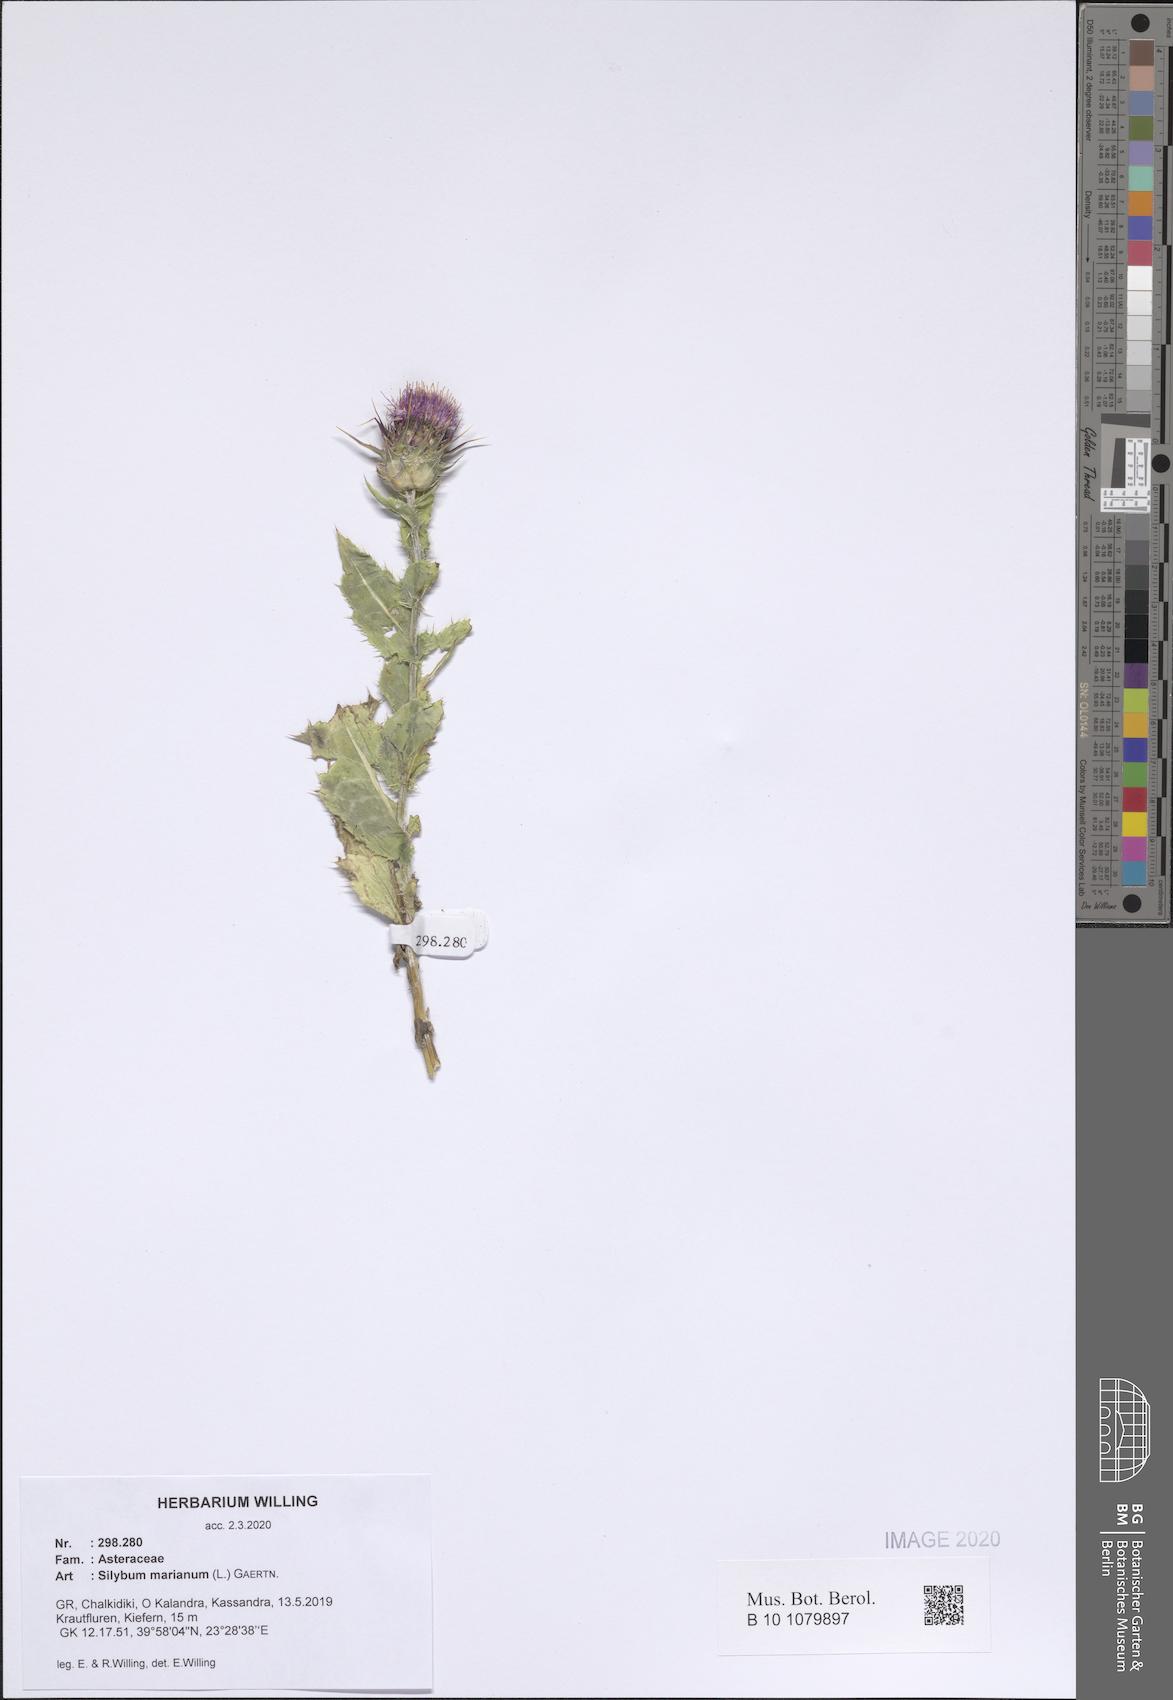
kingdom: Plantae
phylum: Tracheophyta
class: Magnoliopsida
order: Asterales
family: Asteraceae
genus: Silybum
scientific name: Silybum marianum
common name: Milk thistle
